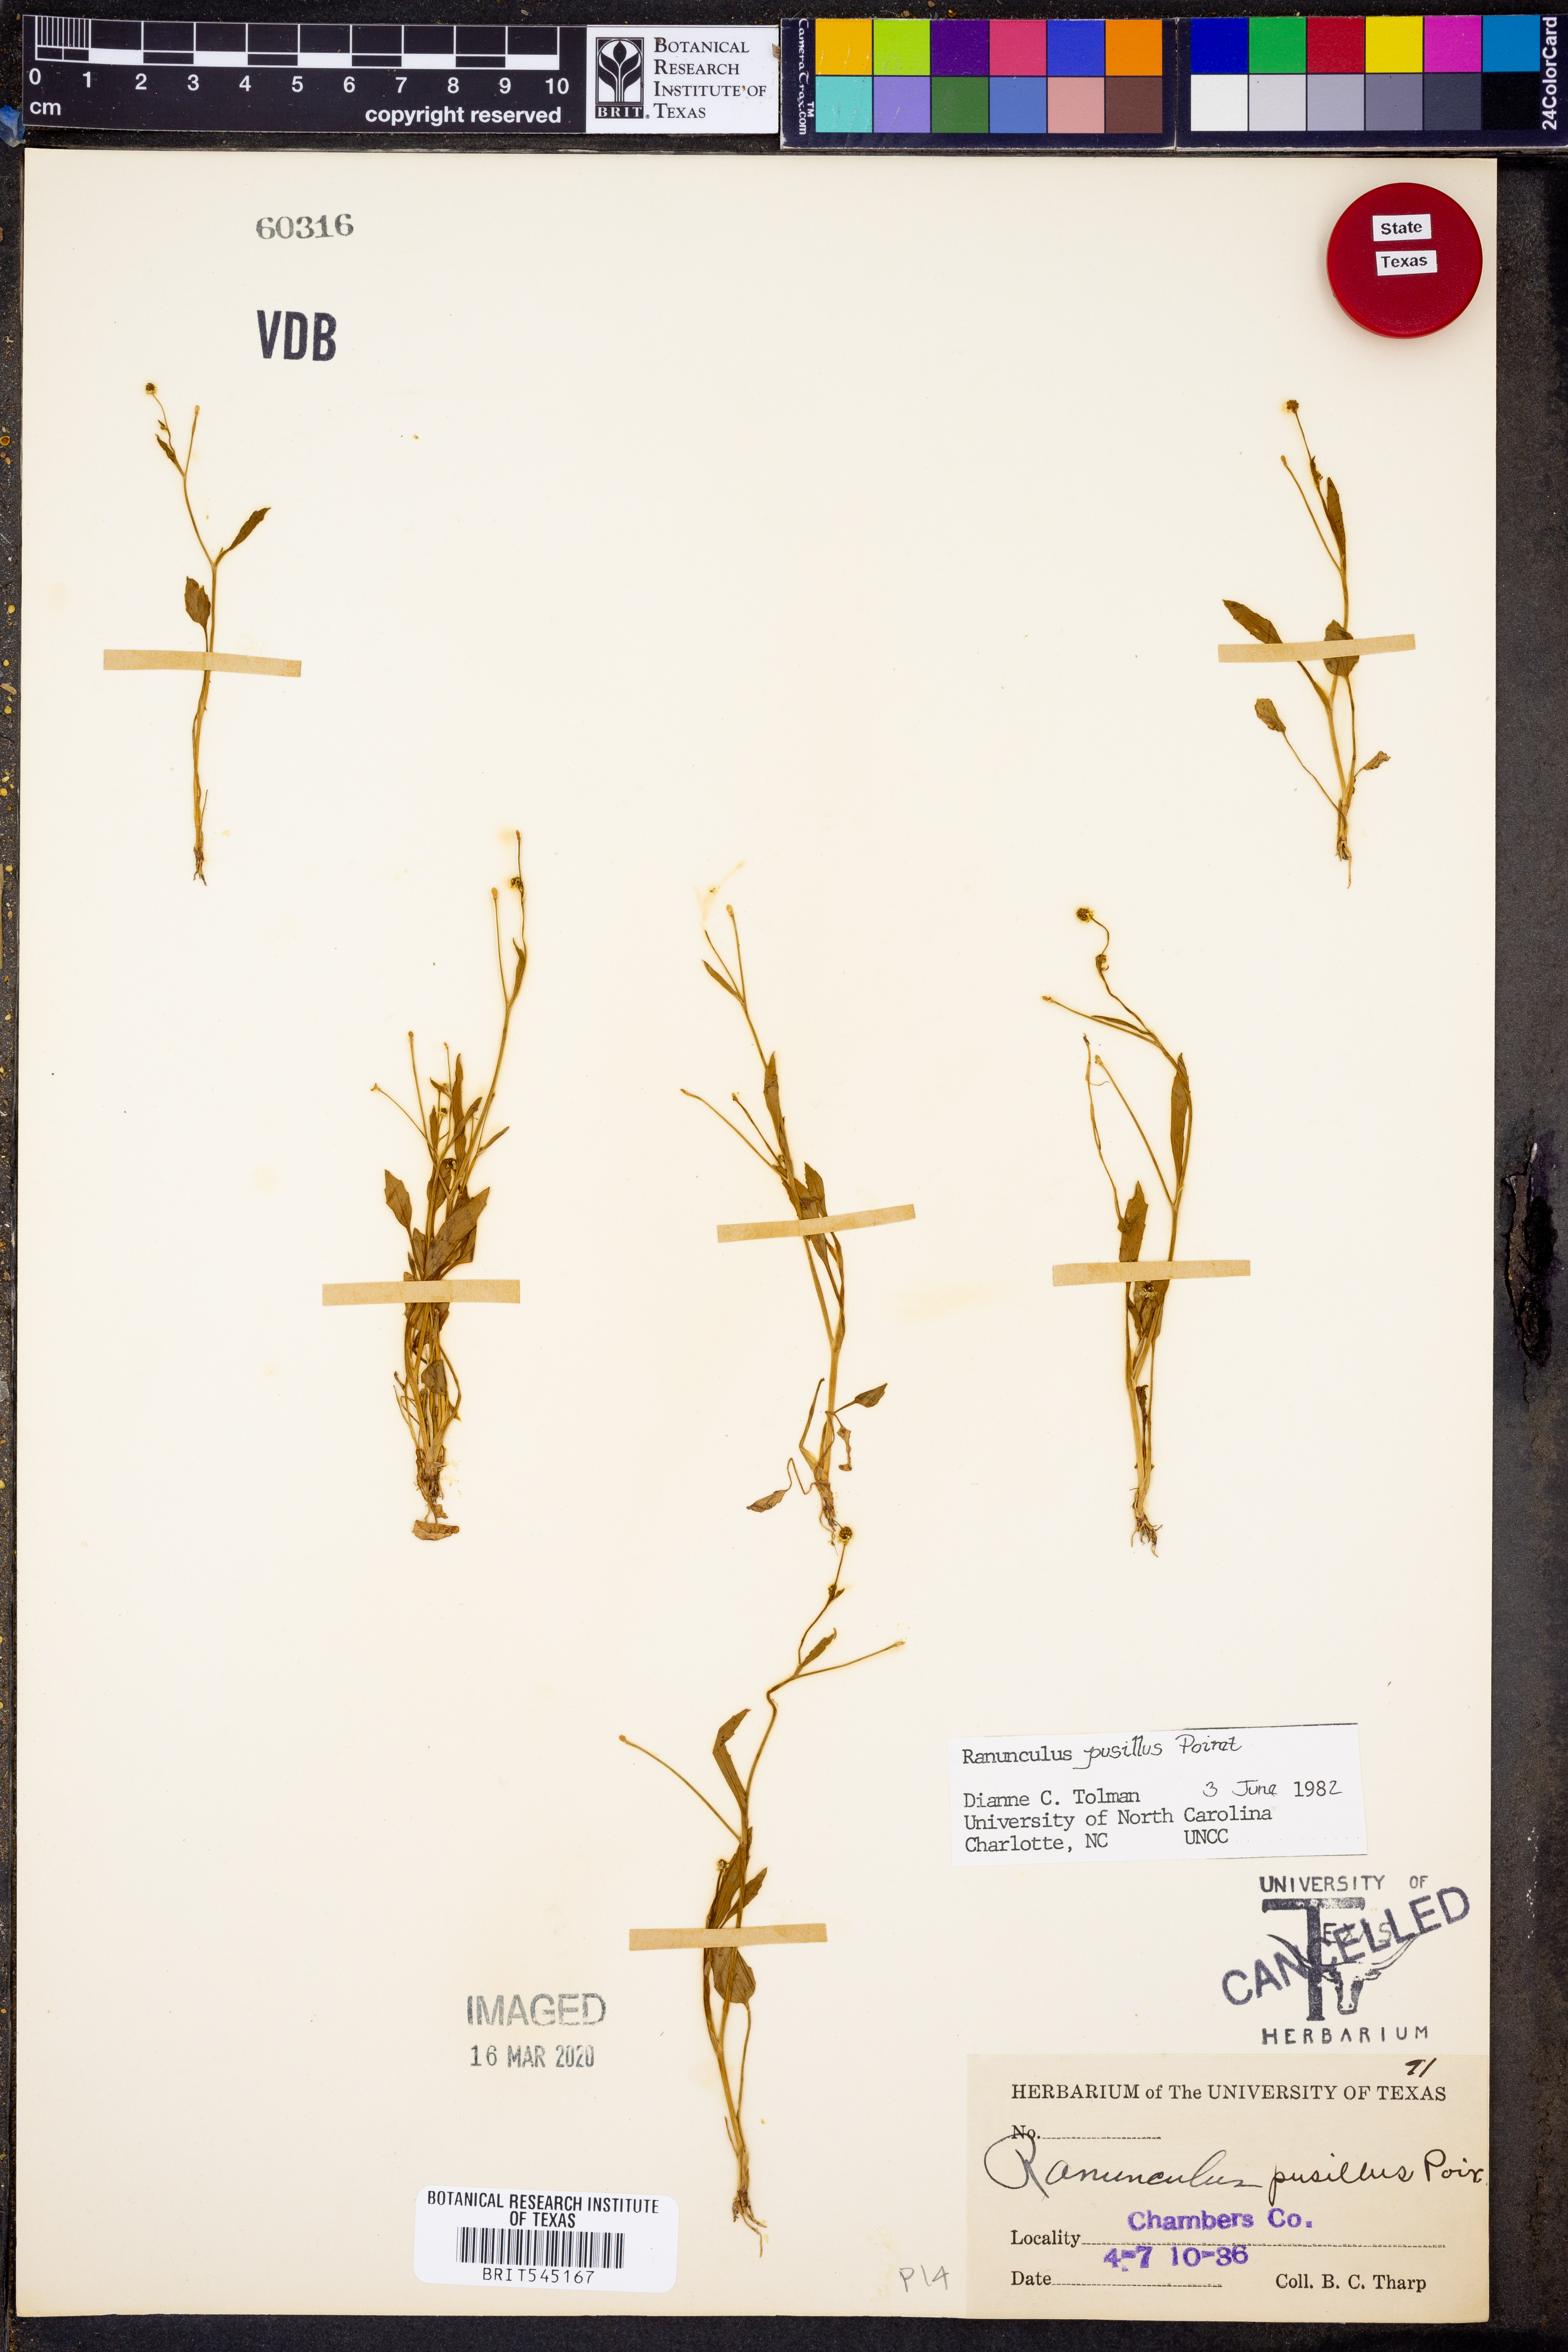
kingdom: Plantae
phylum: Tracheophyta
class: Magnoliopsida
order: Ranunculales
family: Ranunculaceae
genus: Ranunculus
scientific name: Ranunculus pusillus
